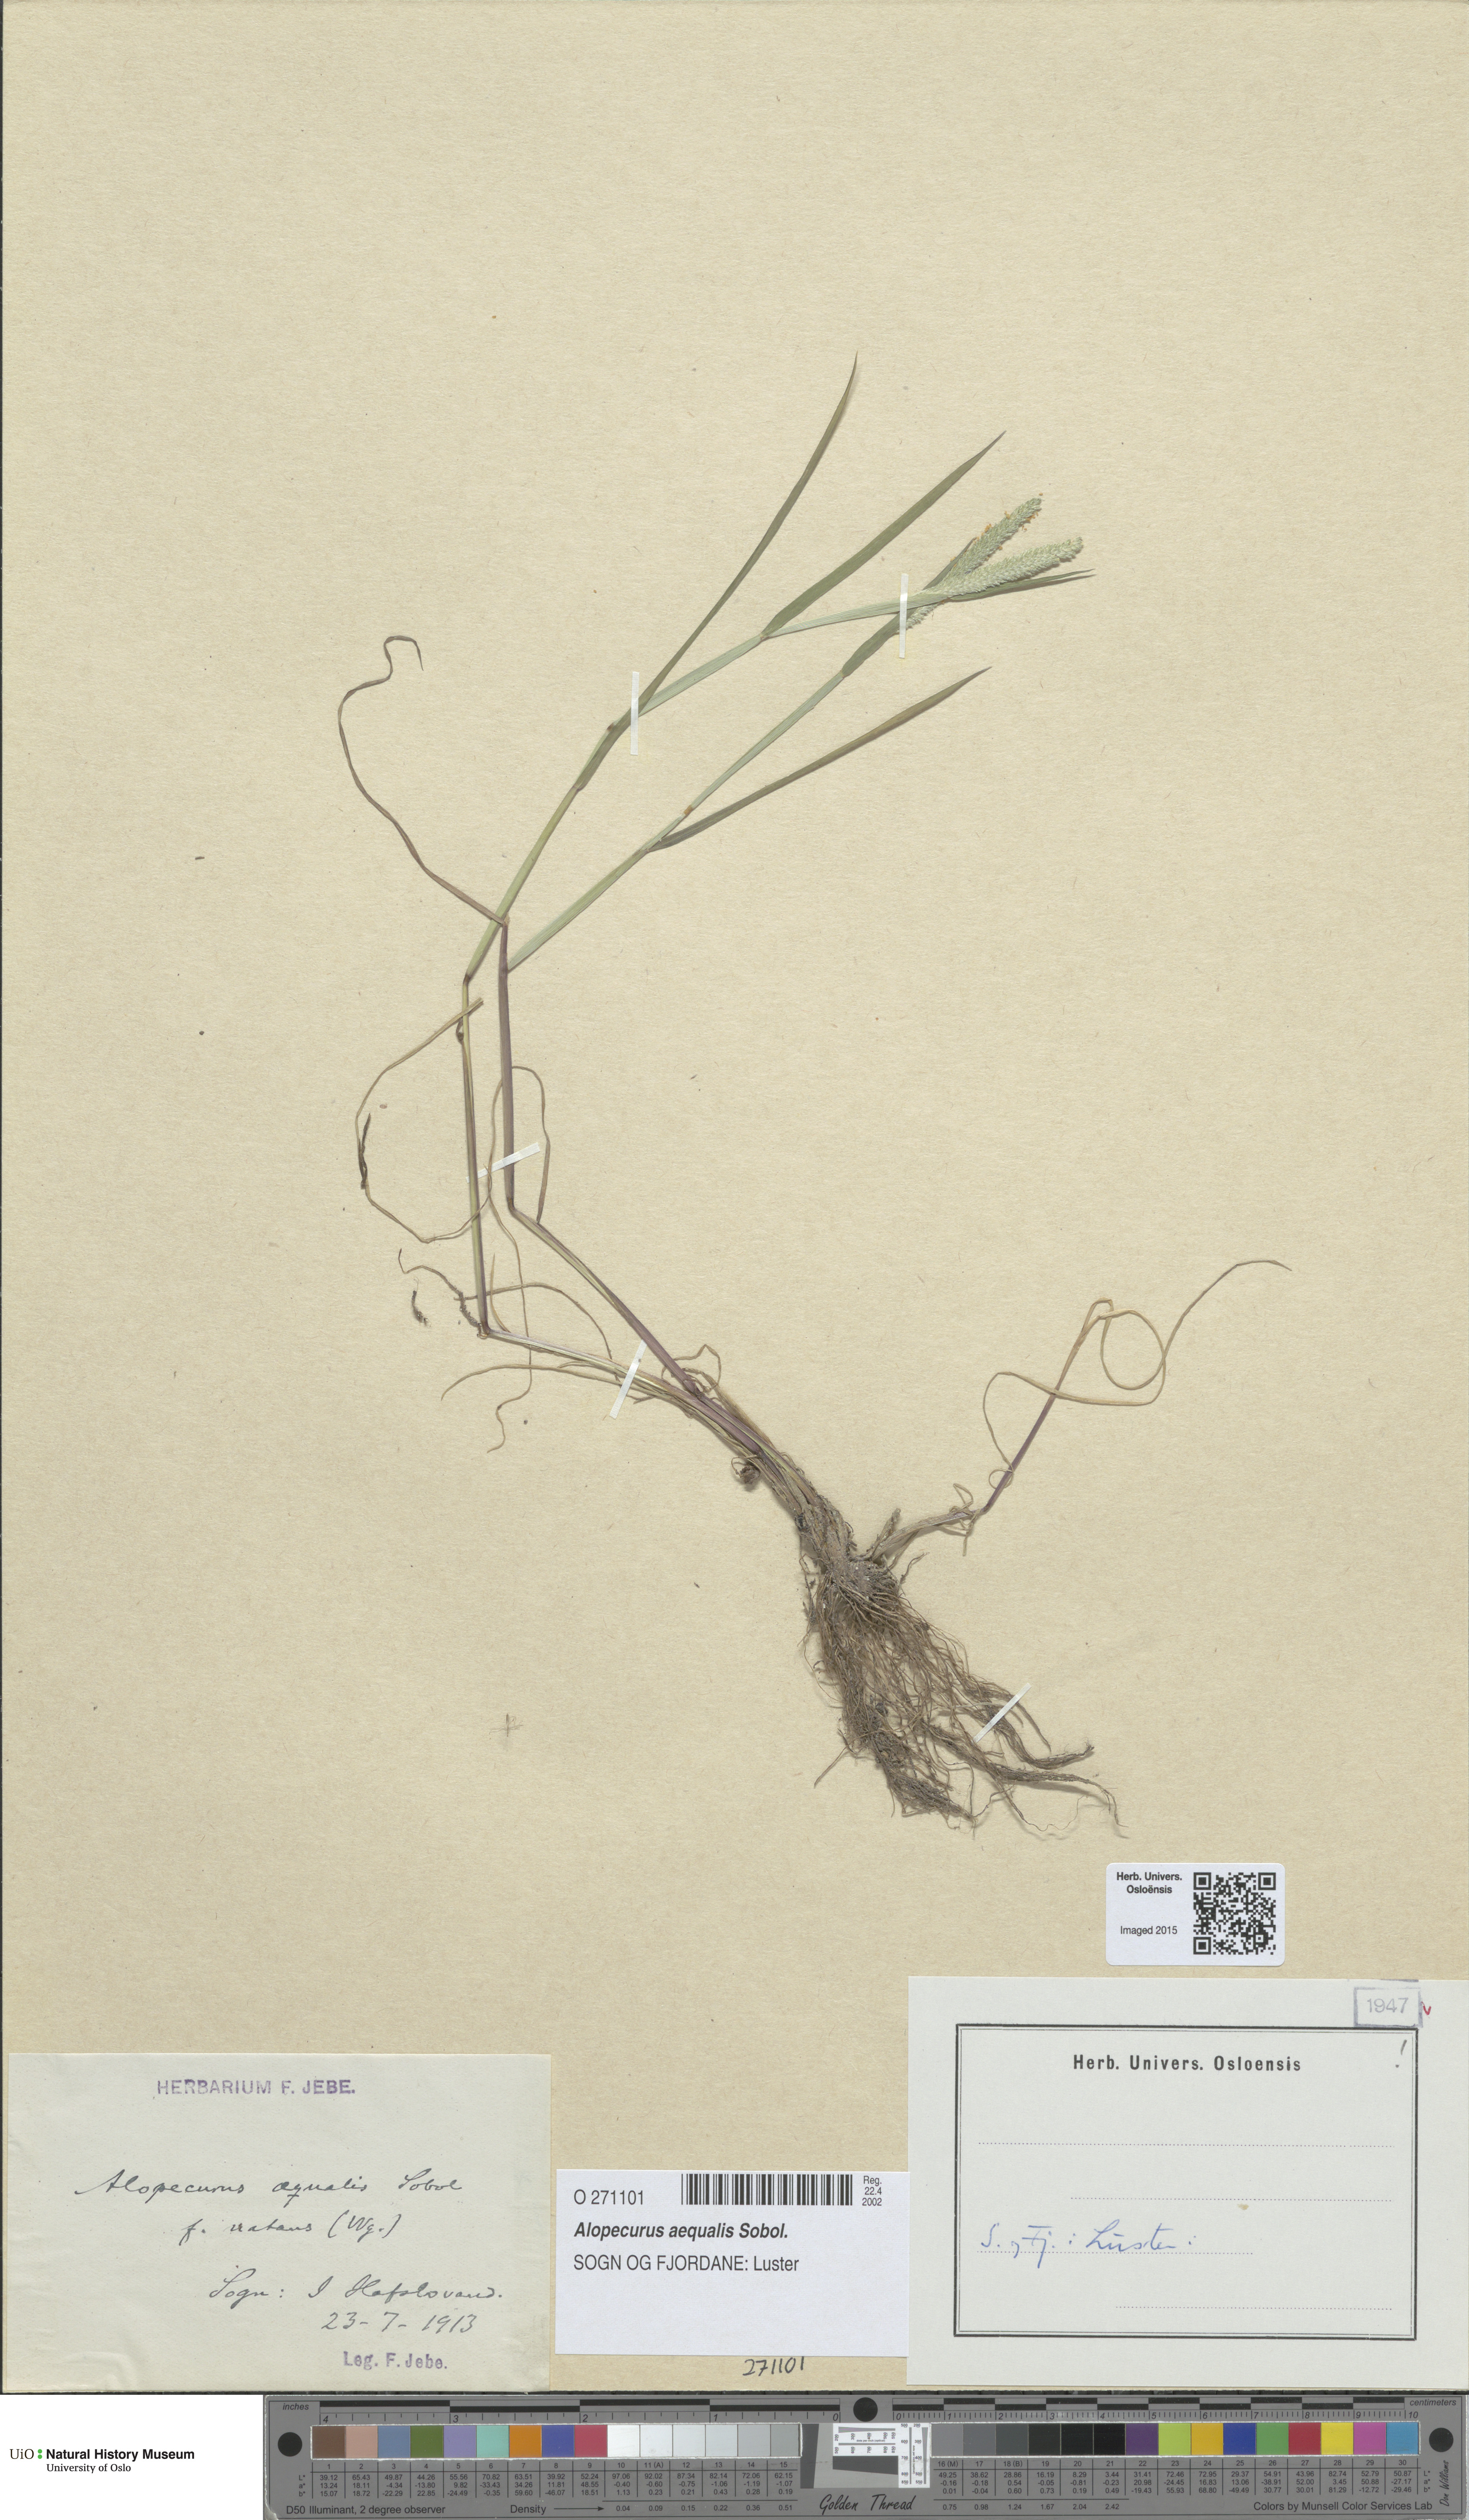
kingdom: Plantae
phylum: Tracheophyta
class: Liliopsida
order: Poales
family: Poaceae
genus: Alopecurus
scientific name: Alopecurus aequalis
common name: Orange foxtail
